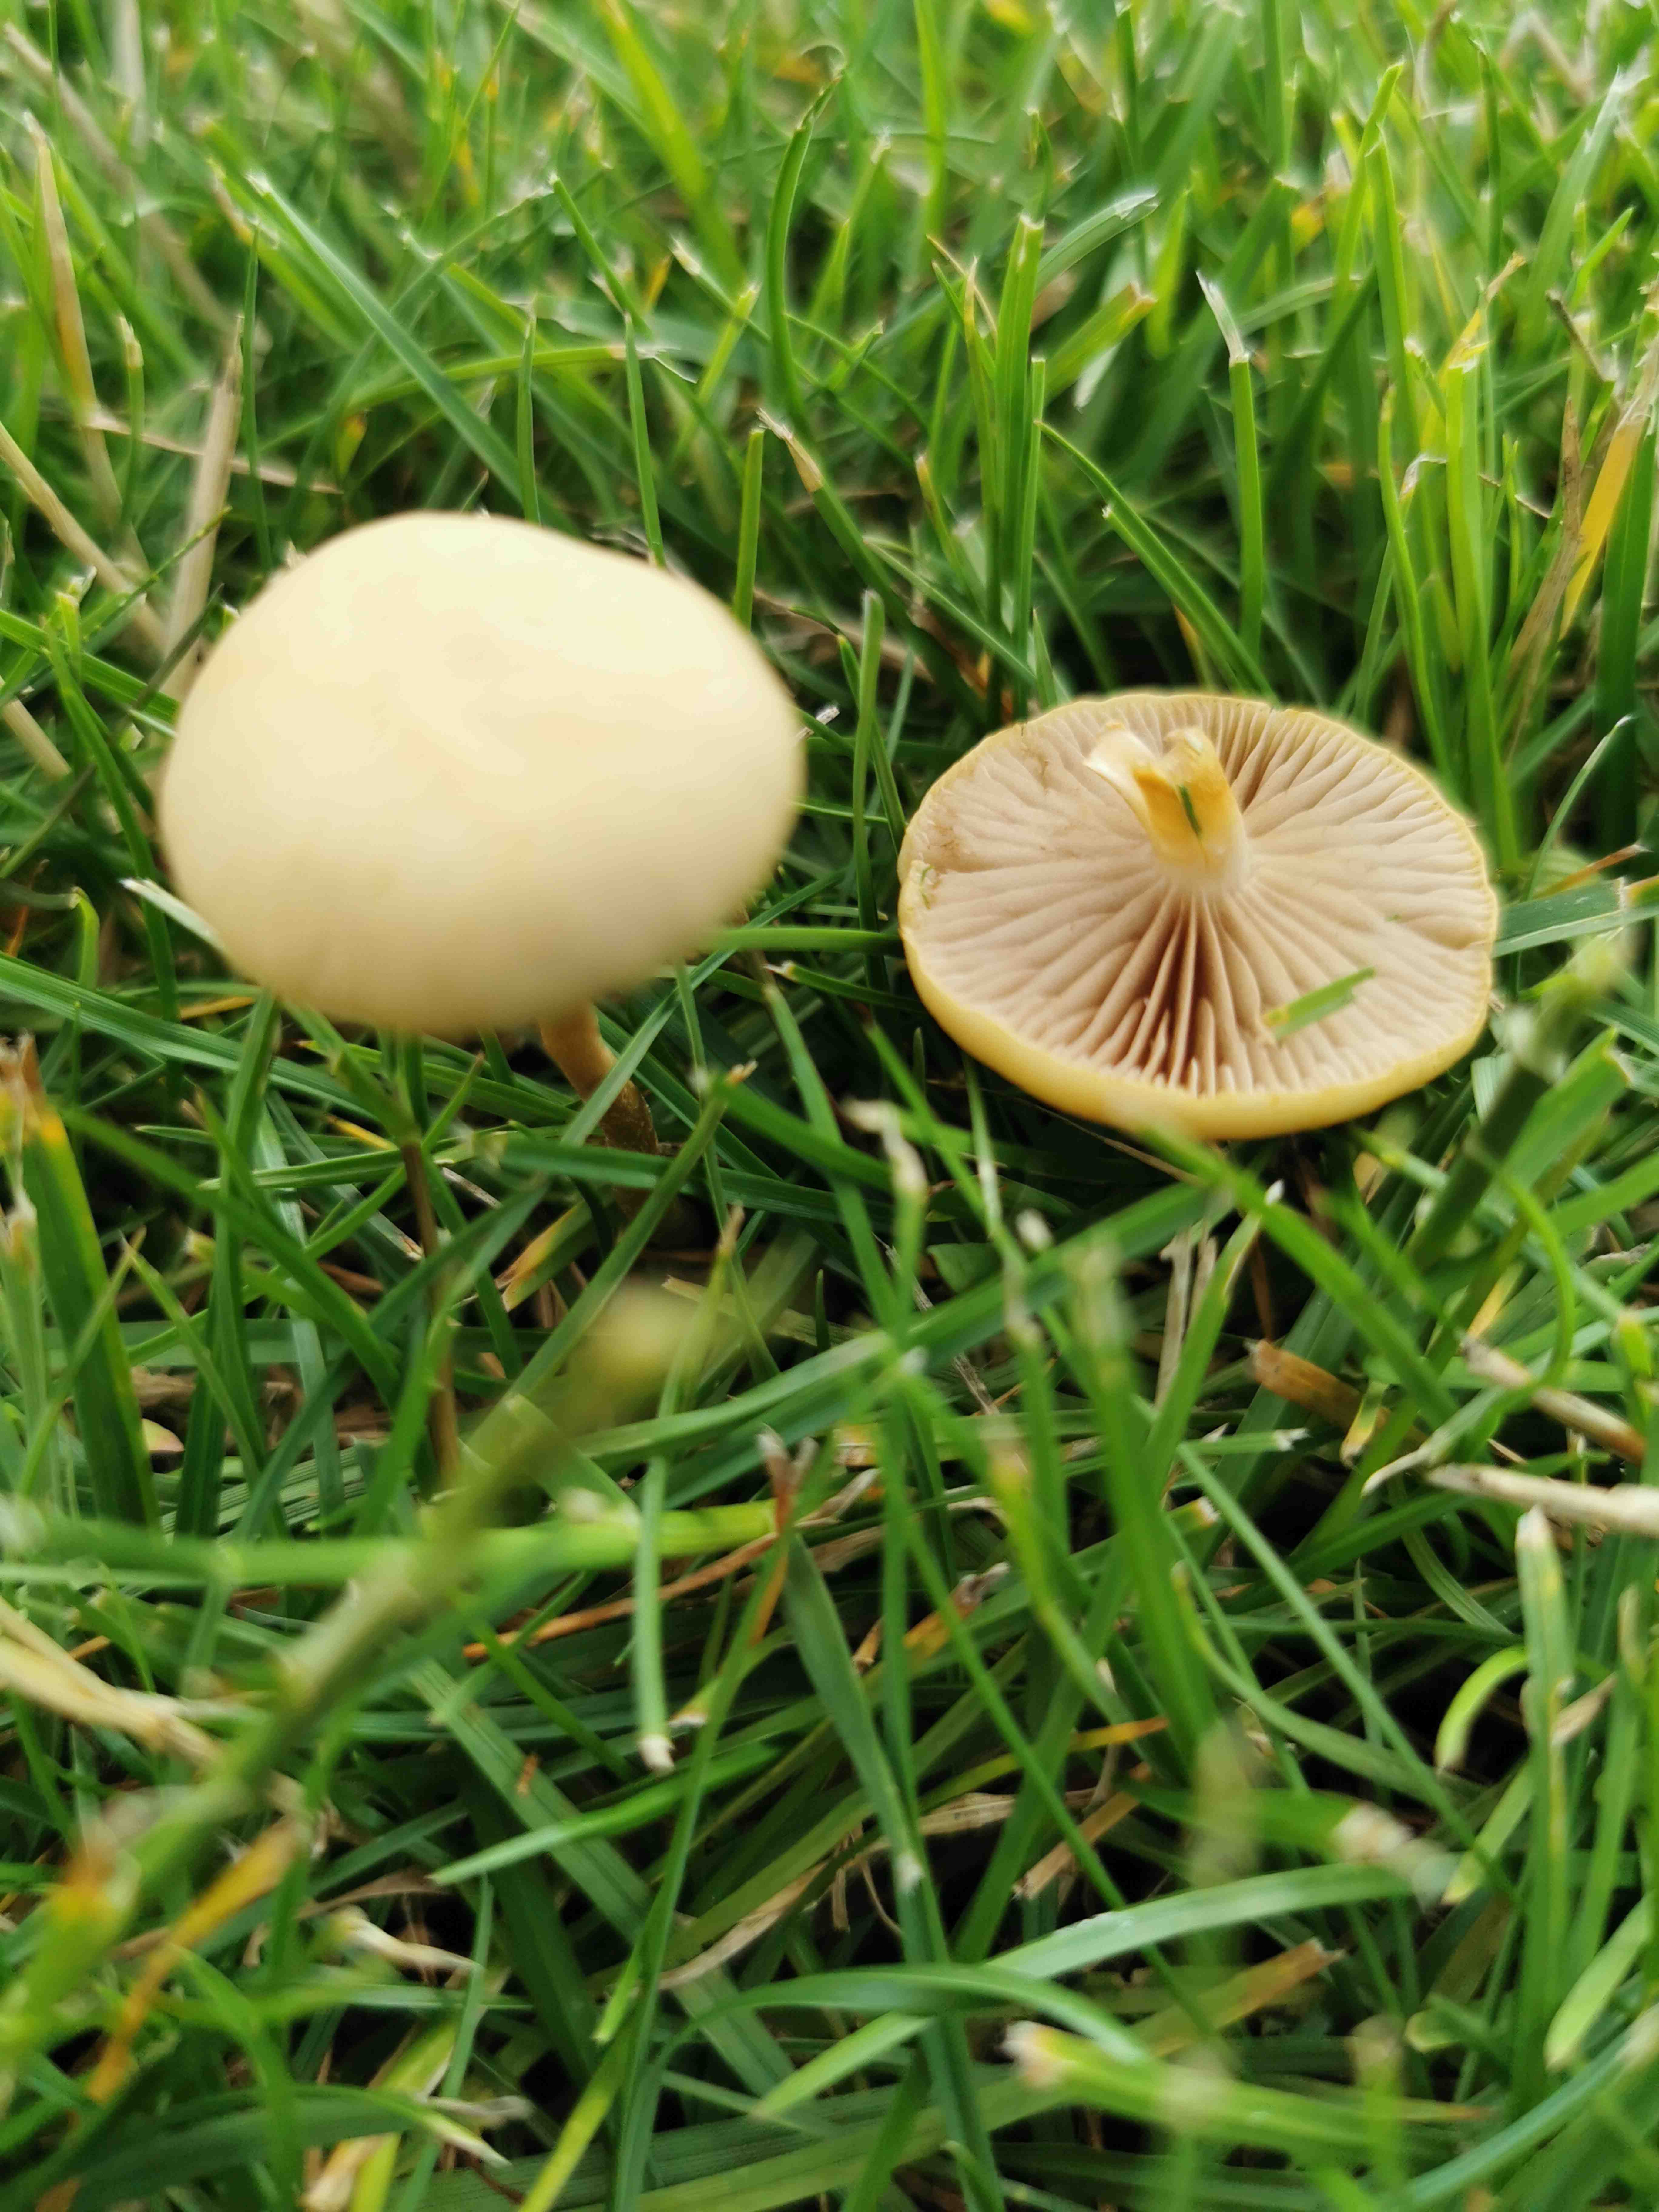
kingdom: Fungi
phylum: Basidiomycota
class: Agaricomycetes
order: Agaricales
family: Strophariaceae
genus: Agrocybe
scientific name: Agrocybe pediades
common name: almindelig agerhat
